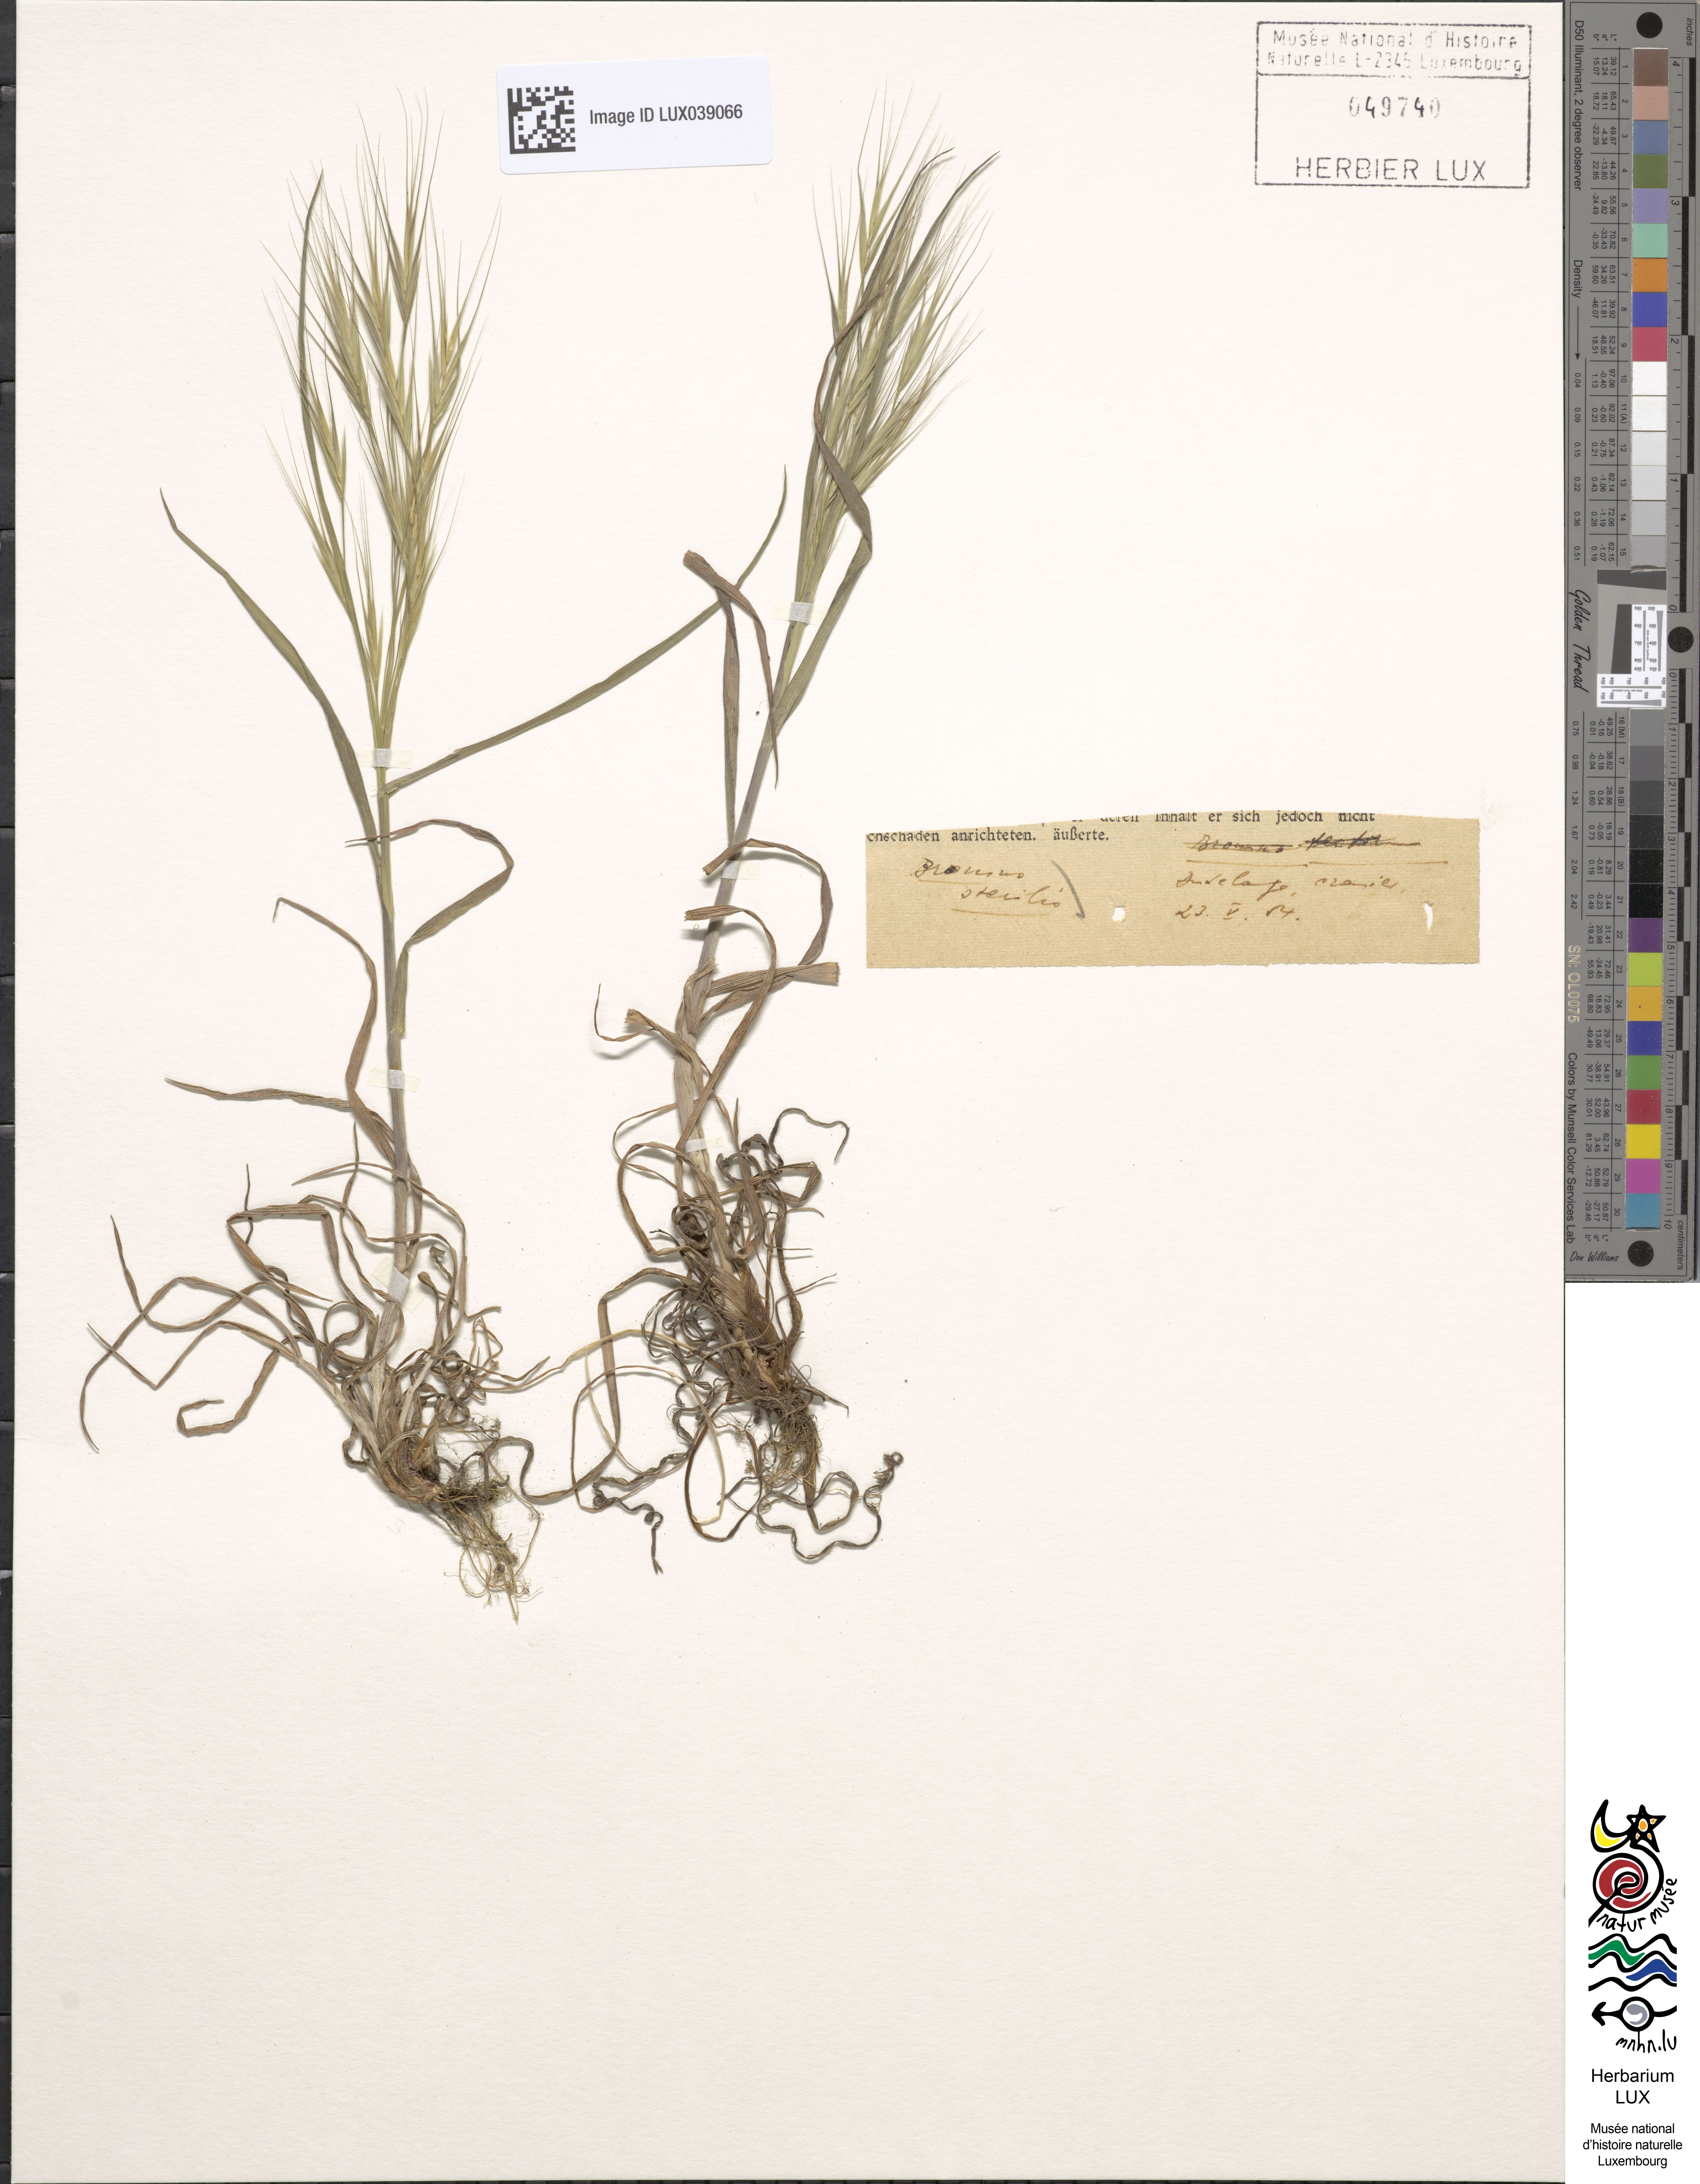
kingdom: Plantae
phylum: Tracheophyta
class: Liliopsida
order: Poales
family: Poaceae
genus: Bromus
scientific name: Bromus sterilis
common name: Poverty brome
